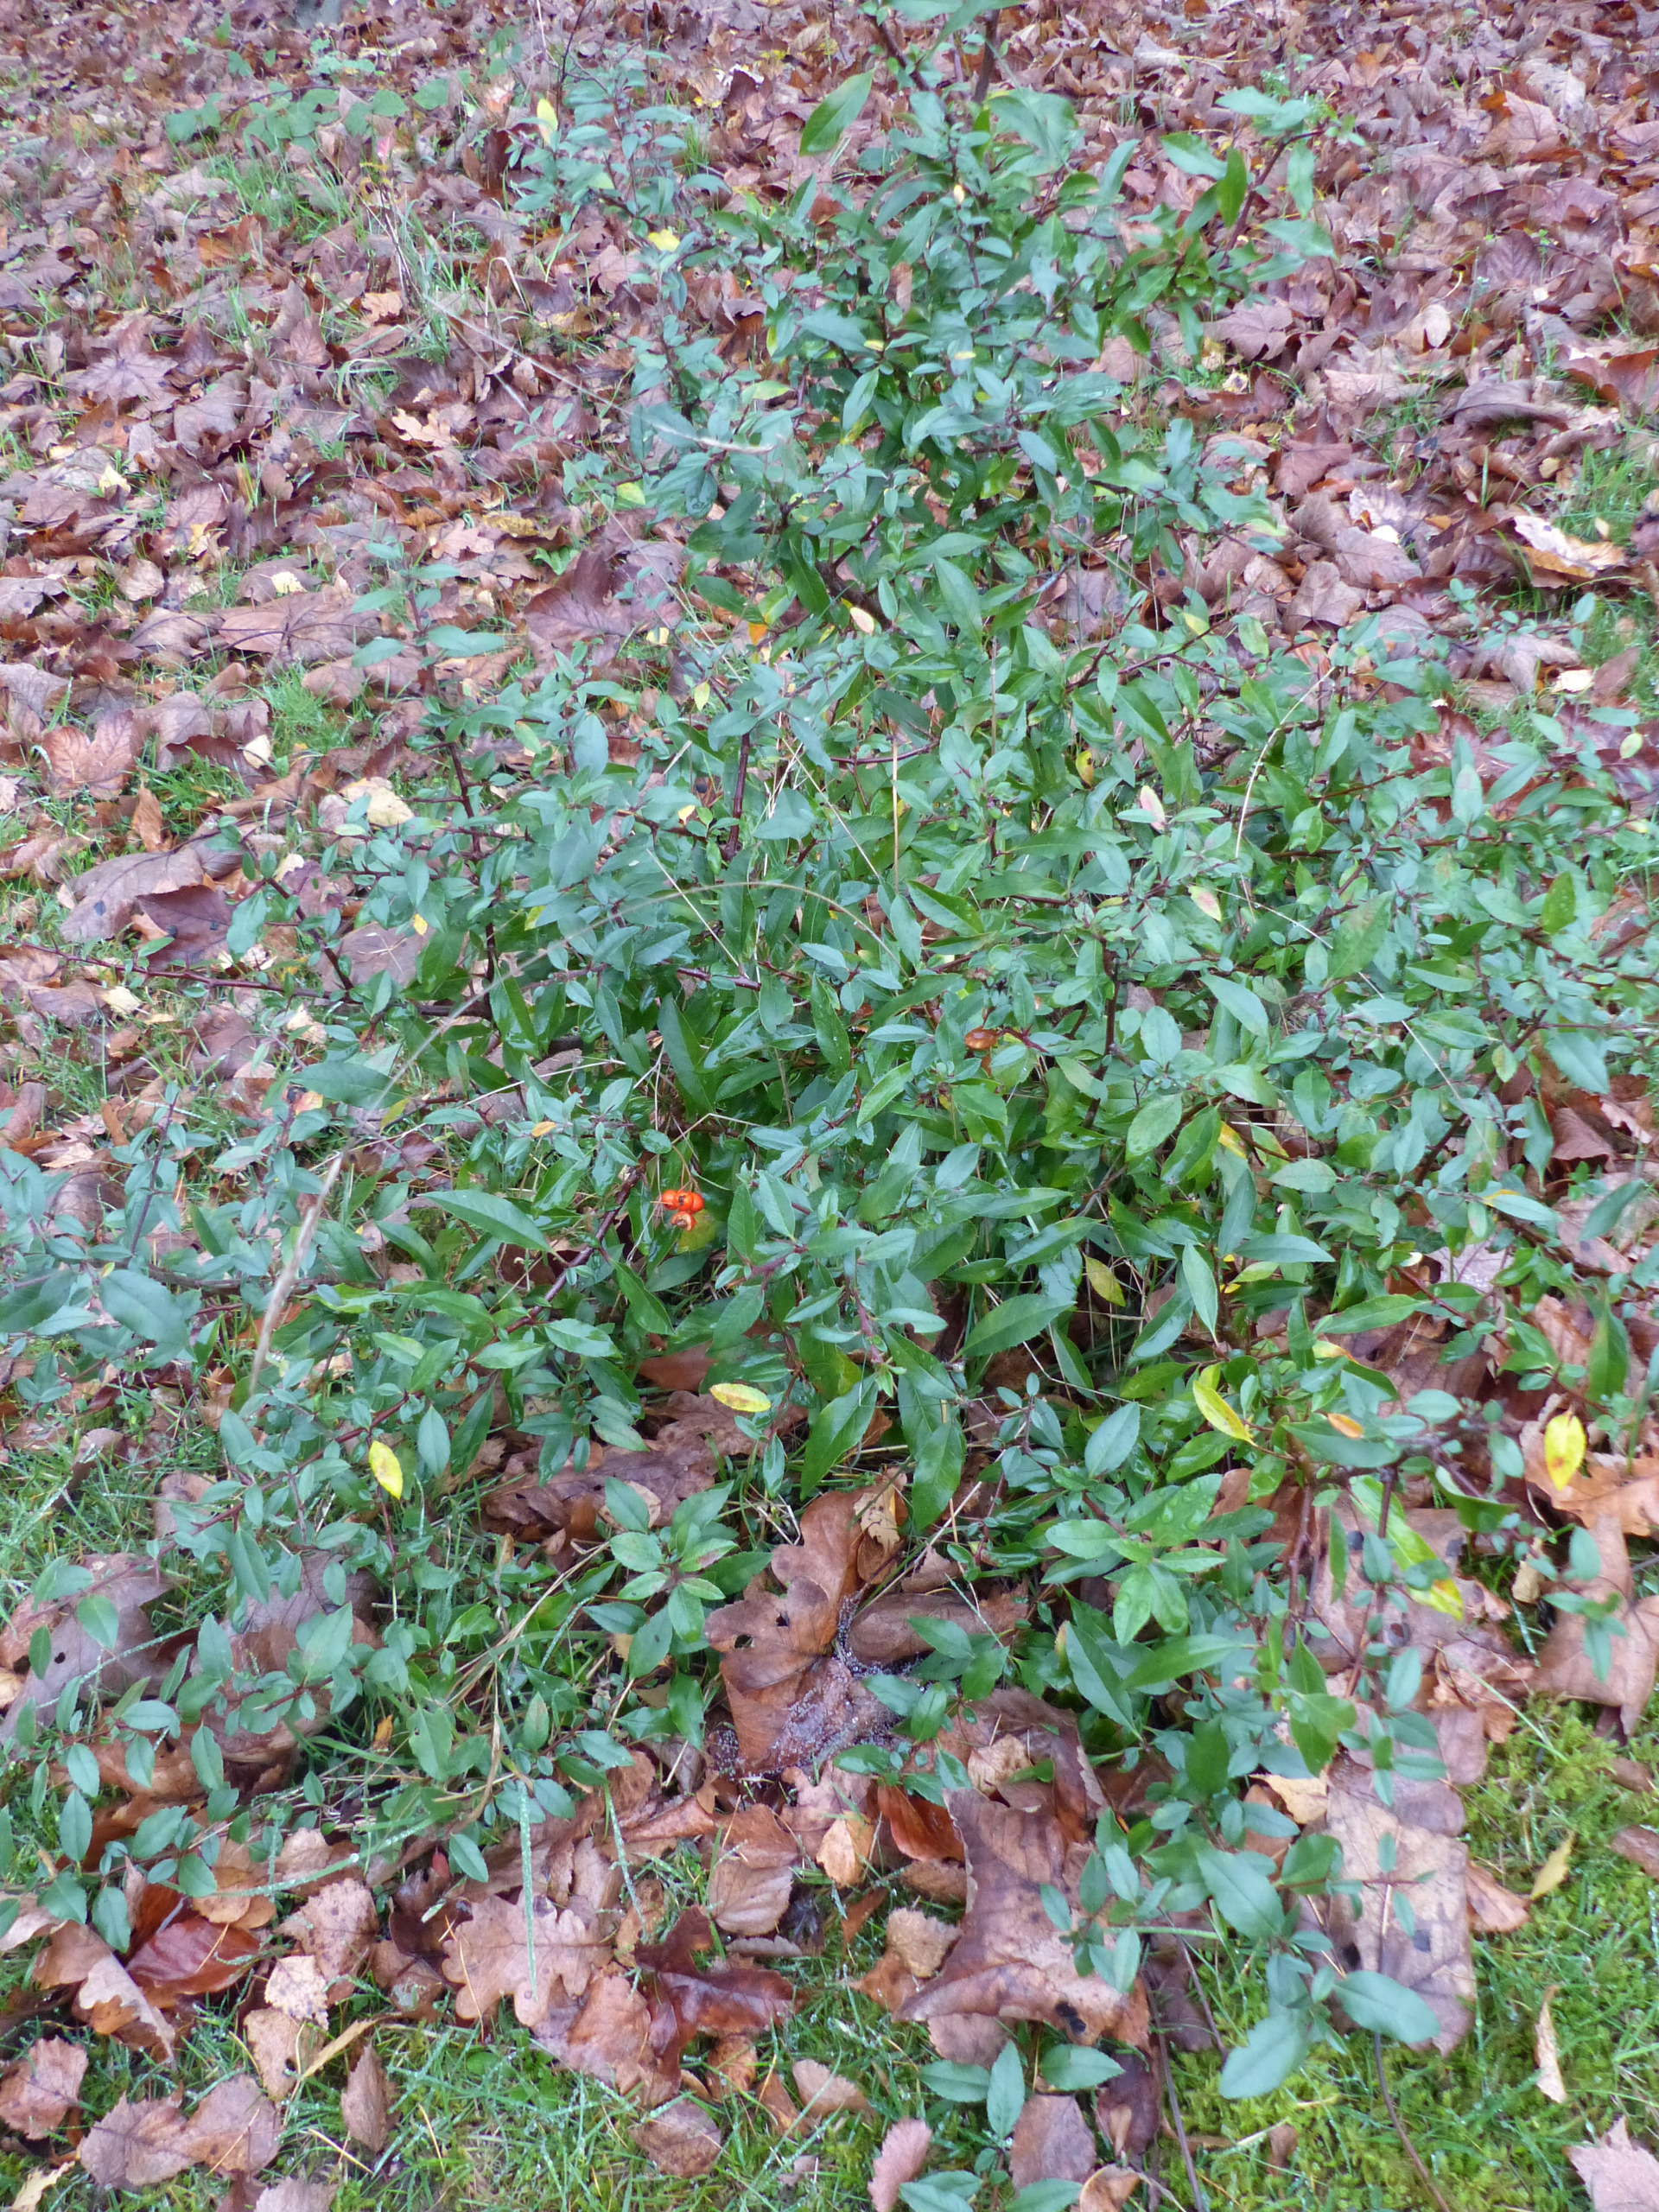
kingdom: Plantae
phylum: Tracheophyta
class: Magnoliopsida
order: Rosales
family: Rosaceae
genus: Pyracantha
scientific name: Pyracantha coccinea
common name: Ildtorn
